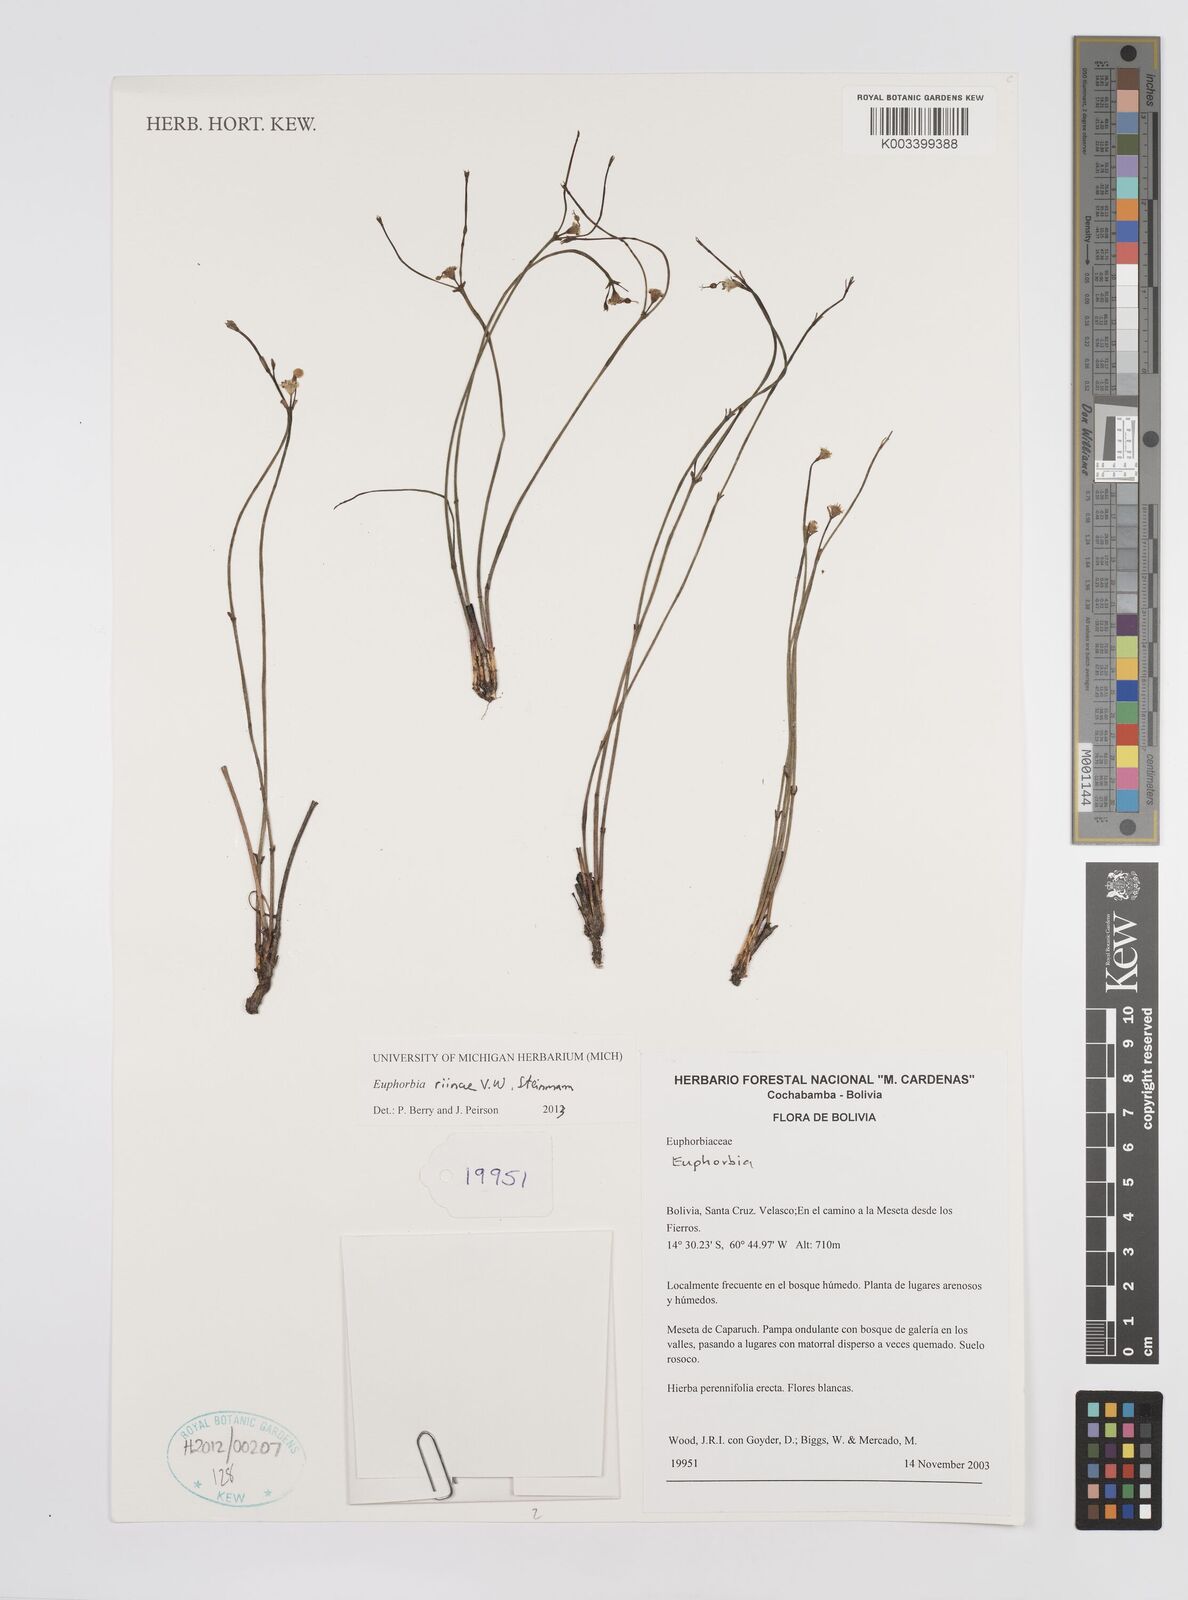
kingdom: Plantae
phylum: Tracheophyta
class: Magnoliopsida
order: Malpighiales
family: Euphorbiaceae
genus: Euphorbia
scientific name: Euphorbia riinae
